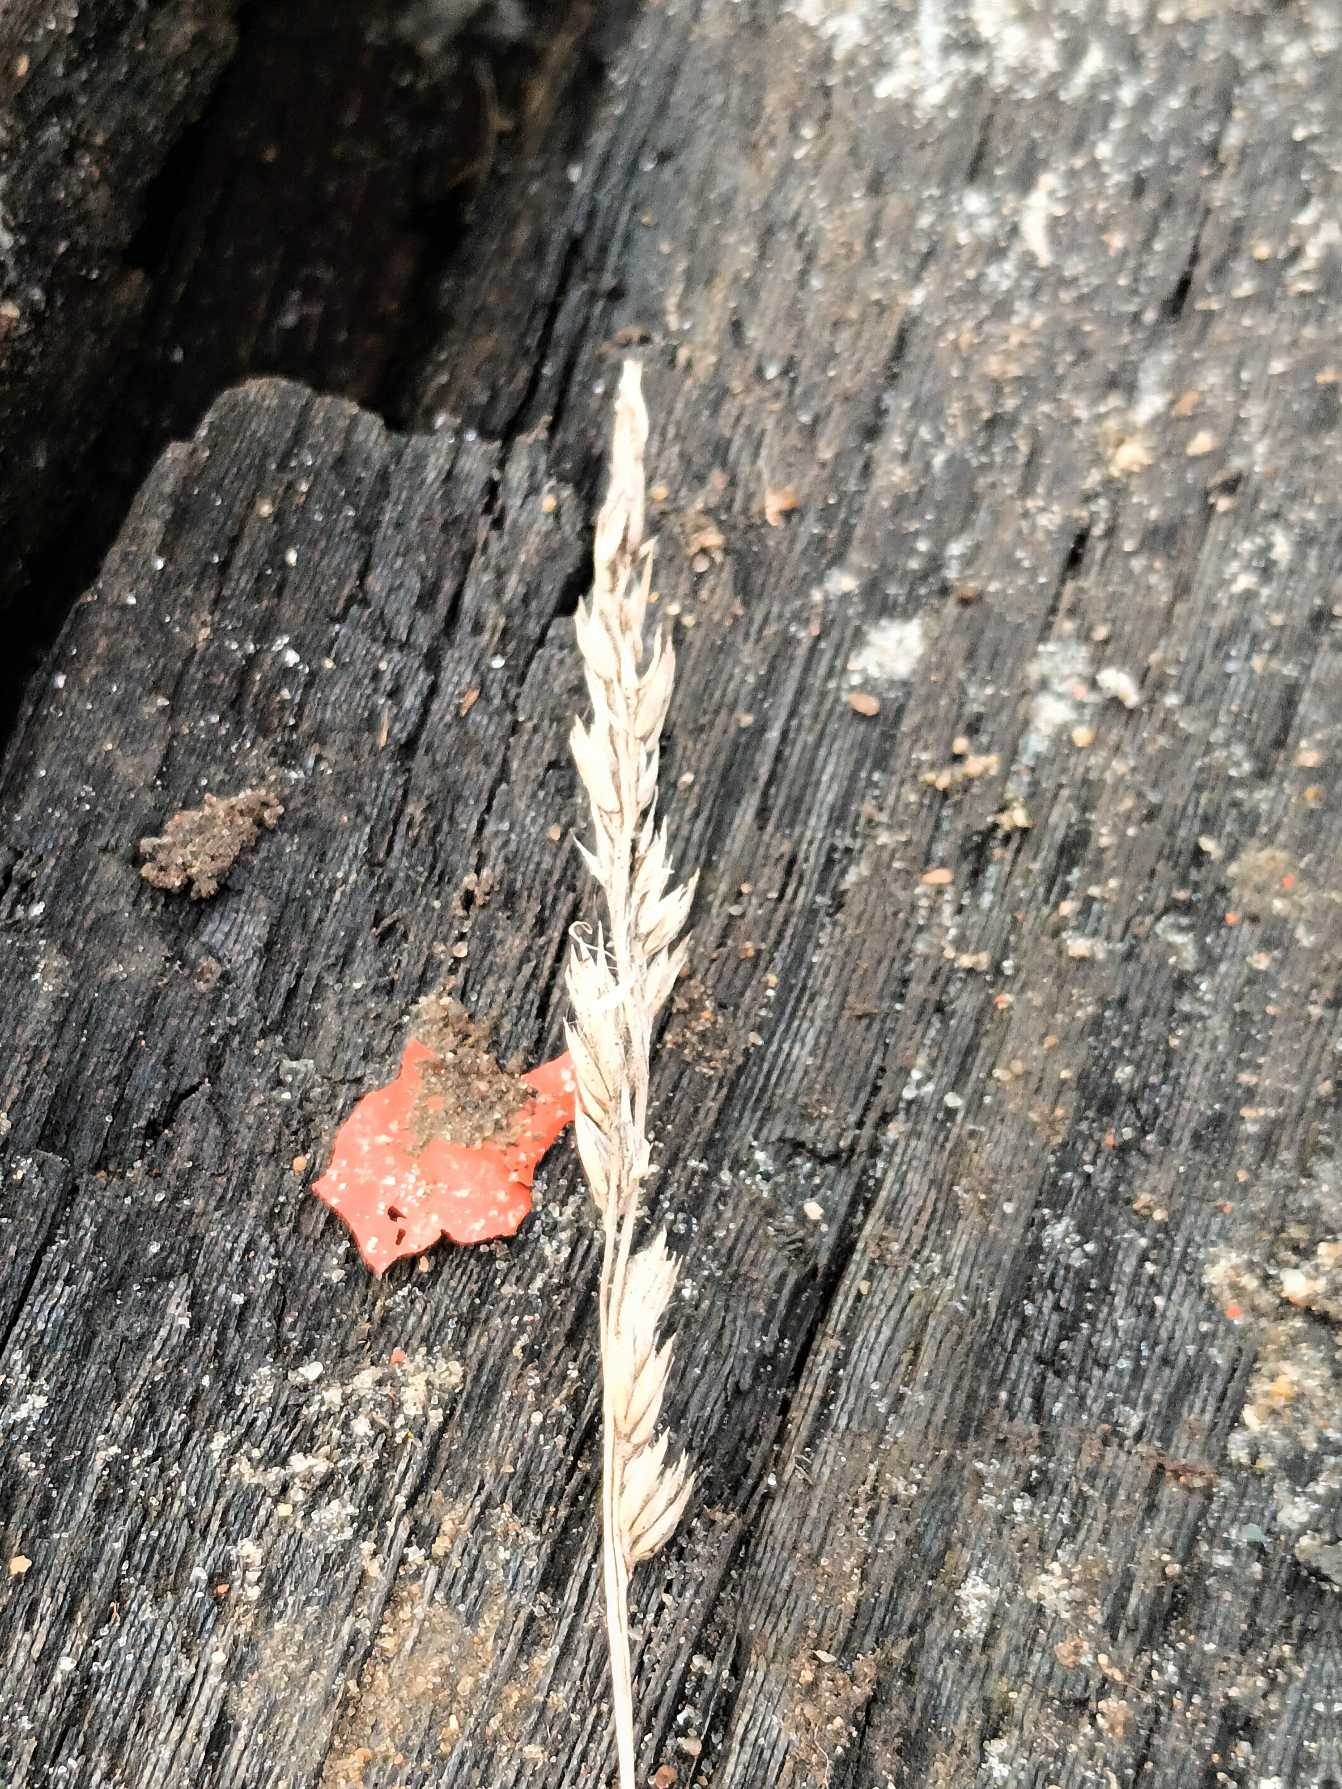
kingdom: Plantae
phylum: Tracheophyta
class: Liliopsida
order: Poales
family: Poaceae
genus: Dactylis
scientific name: Dactylis glomerata
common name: Almindelig hundegræs
